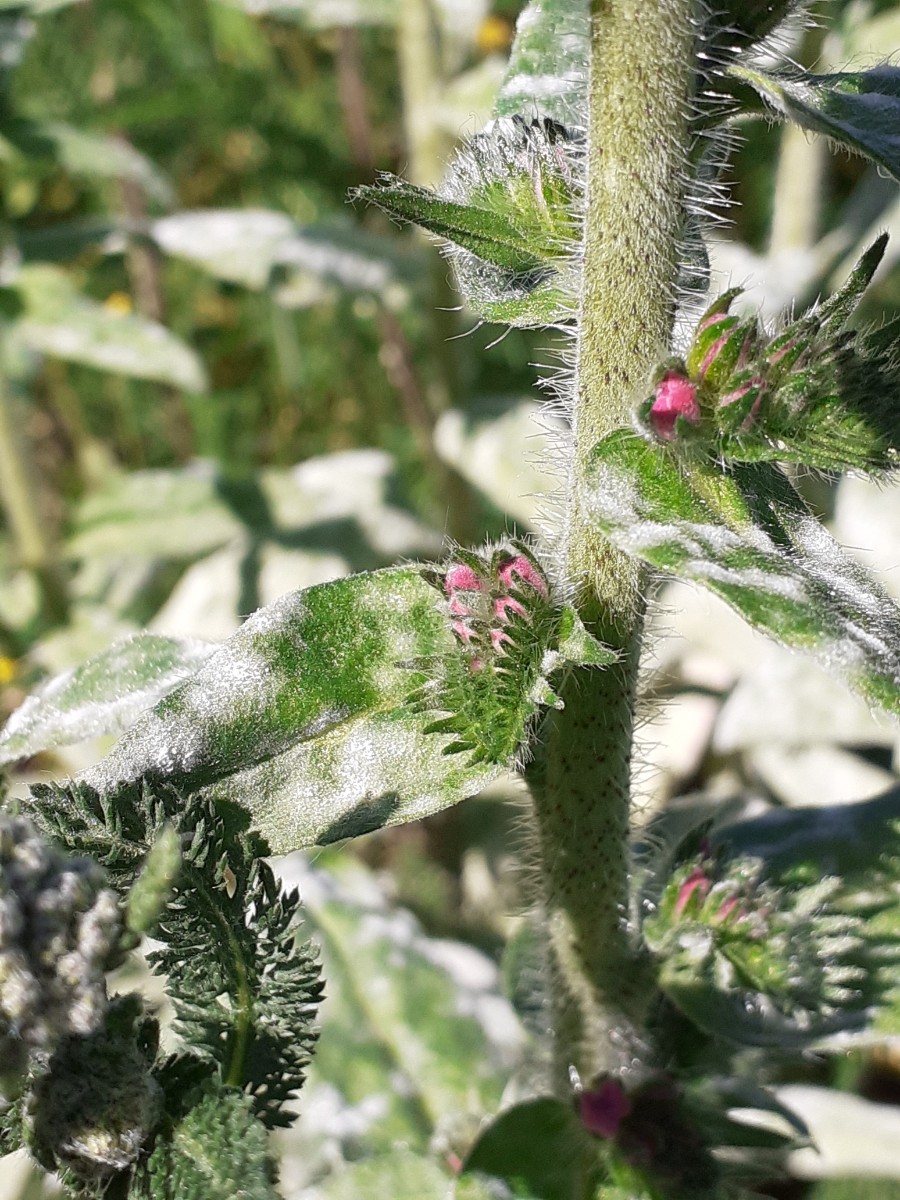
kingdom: Fungi
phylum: Ascomycota
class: Leotiomycetes
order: Helotiales
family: Erysiphaceae
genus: Golovinomyces
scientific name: Golovinomyces asperifolii
